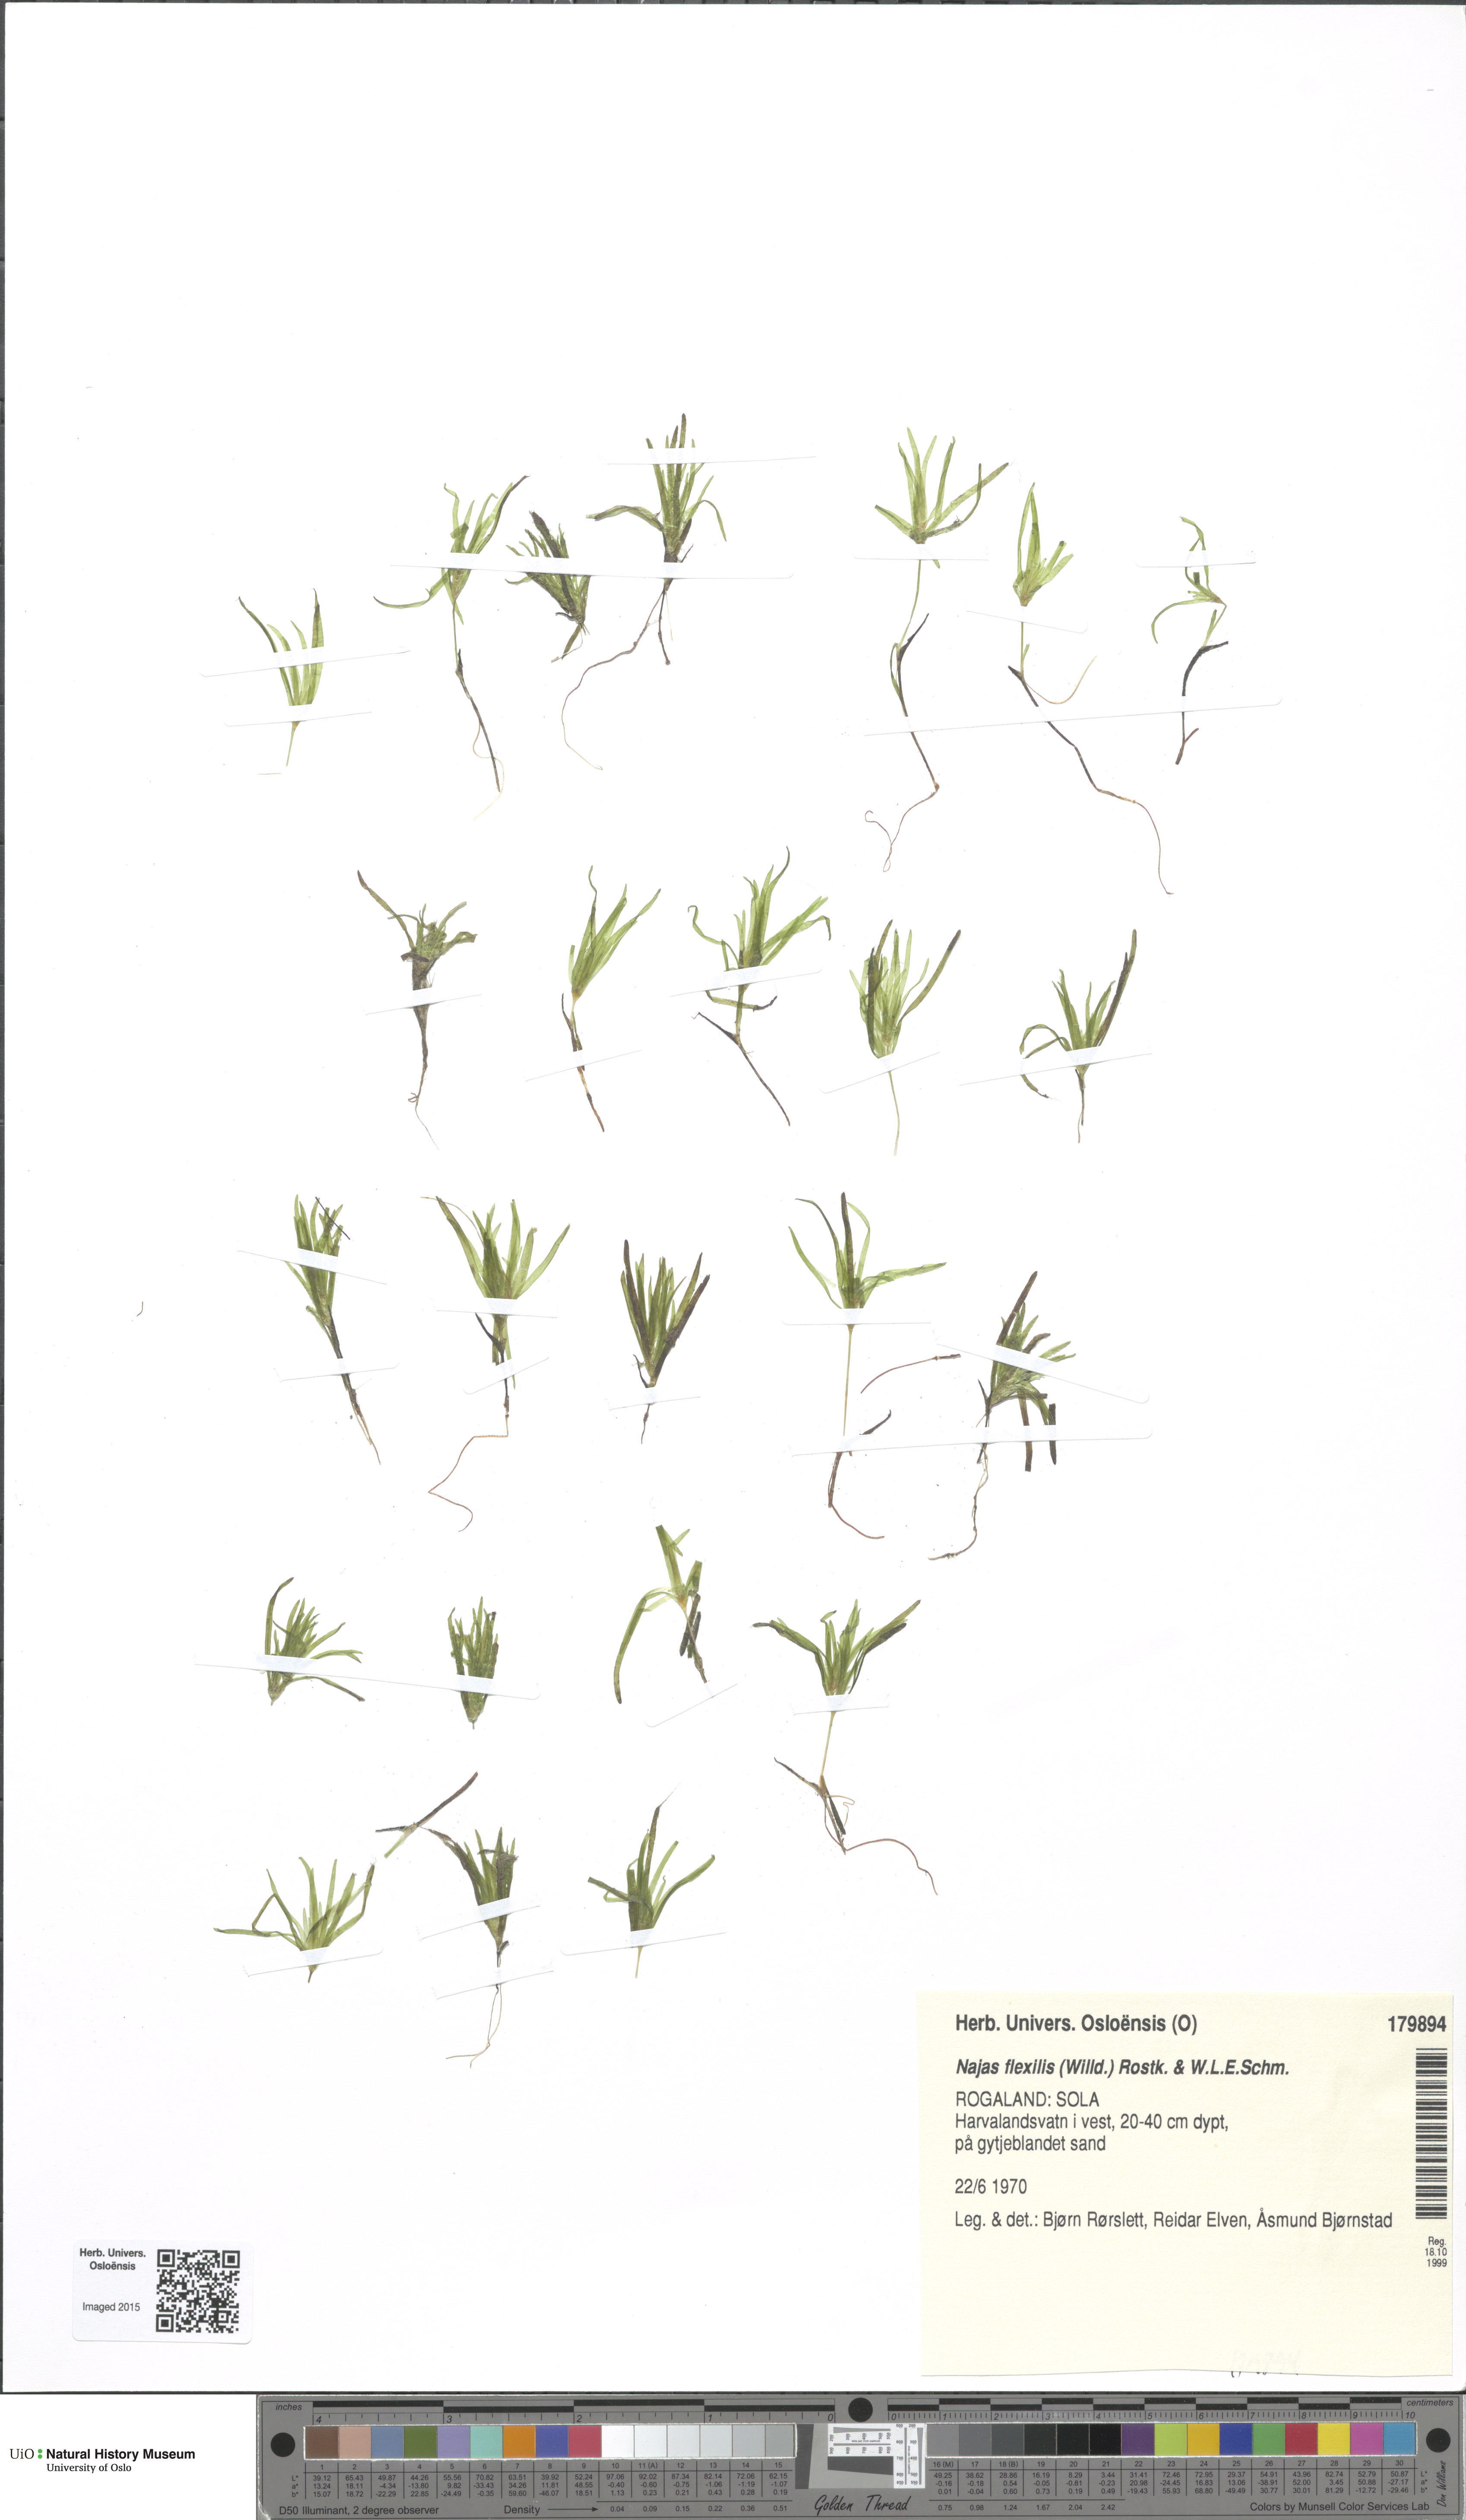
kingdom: Plantae
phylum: Tracheophyta
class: Liliopsida
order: Alismatales
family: Hydrocharitaceae
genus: Najas
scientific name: Najas flexilis
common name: Slender naiad
